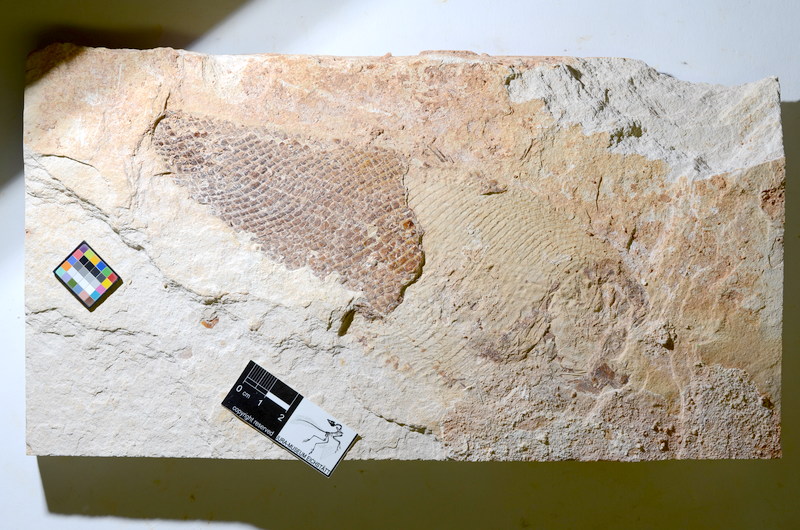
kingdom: Animalia
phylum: Chordata
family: Ankylophoridae
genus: Siemensichthys
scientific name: Siemensichthys siemensi
